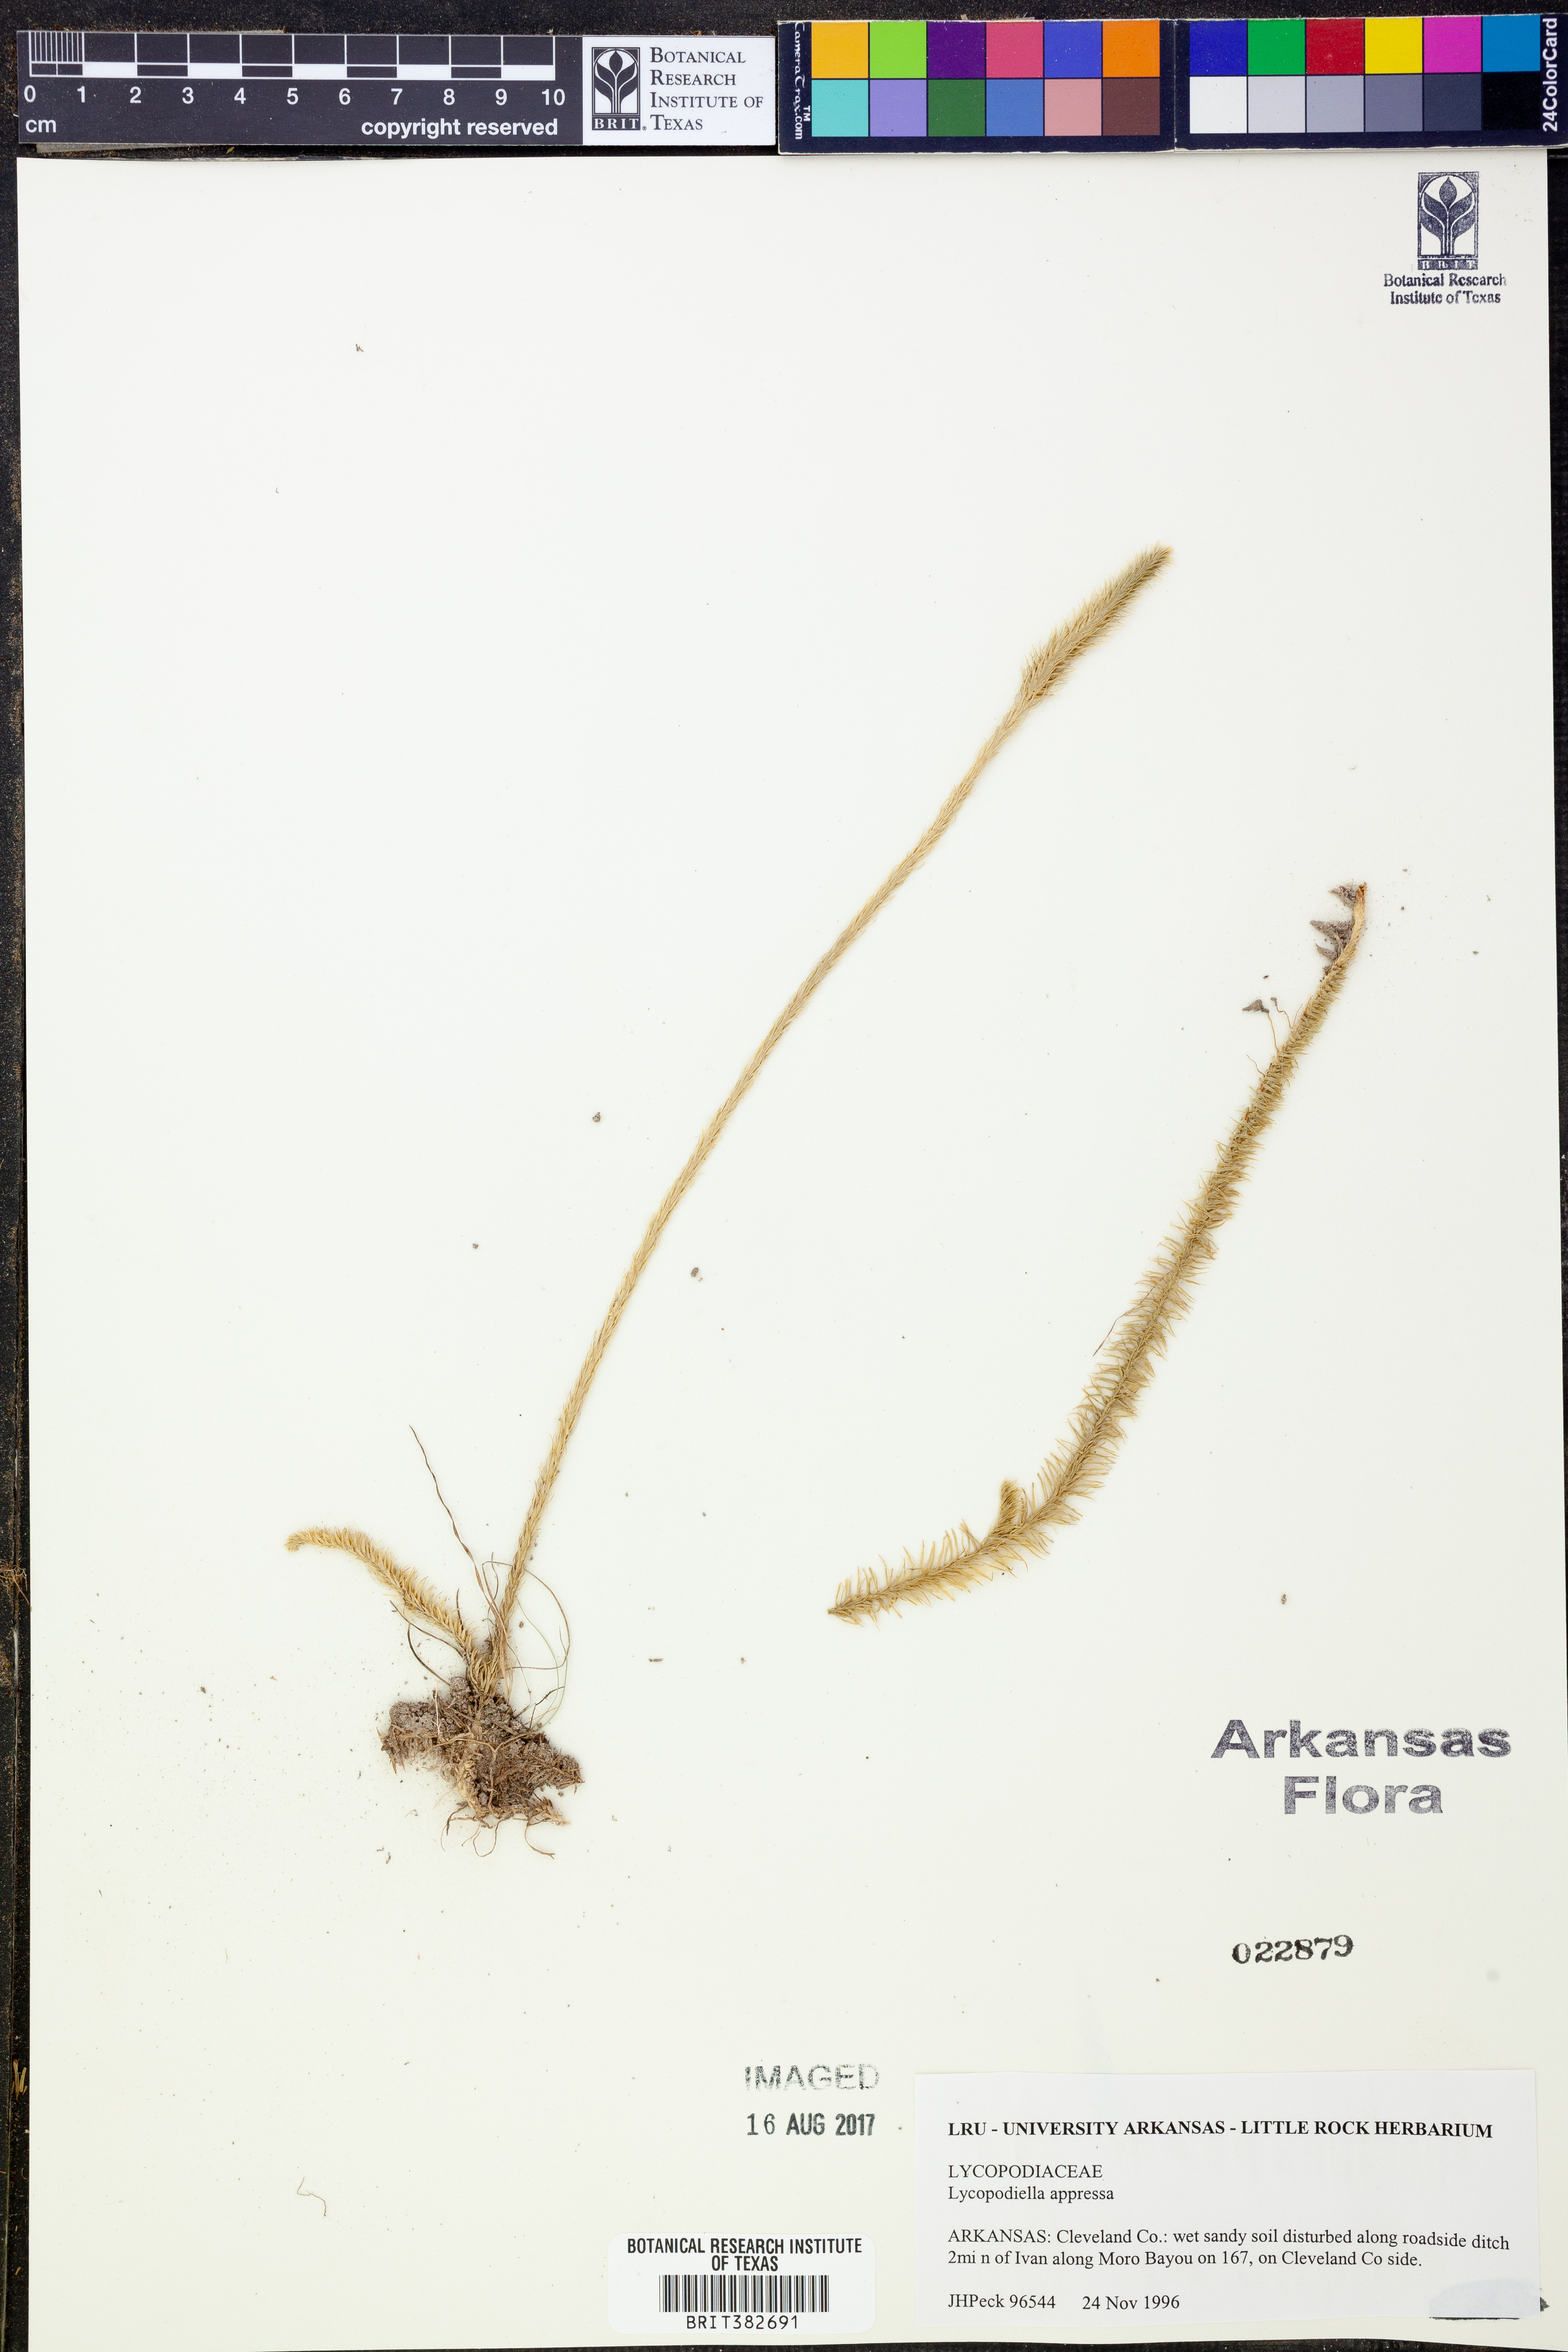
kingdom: Plantae
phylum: Tracheophyta
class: Lycopodiopsida
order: Lycopodiales
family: Lycopodiaceae
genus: Lycopodiella
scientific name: Lycopodiella appressa
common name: Appressed bog clubmoss
